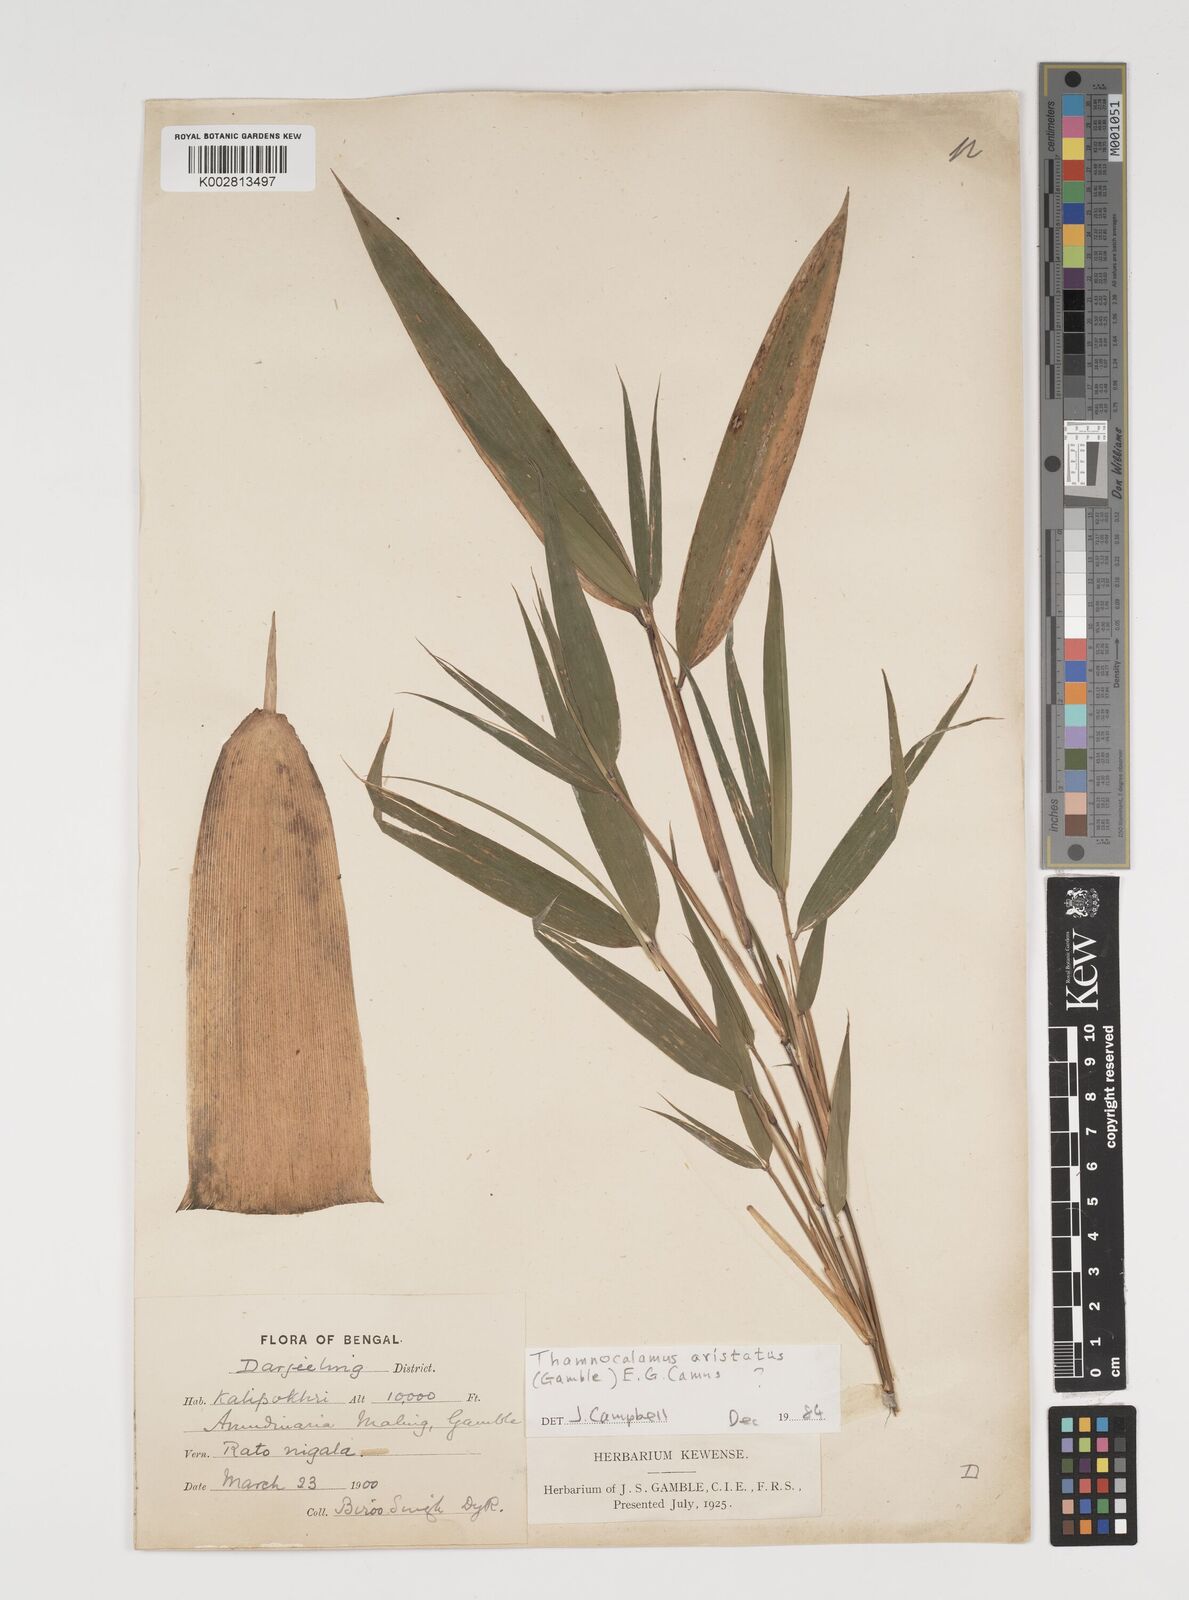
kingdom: Plantae
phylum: Tracheophyta
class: Liliopsida
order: Poales
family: Poaceae
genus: Thamnocalamus
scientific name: Thamnocalamus spathiflorus
